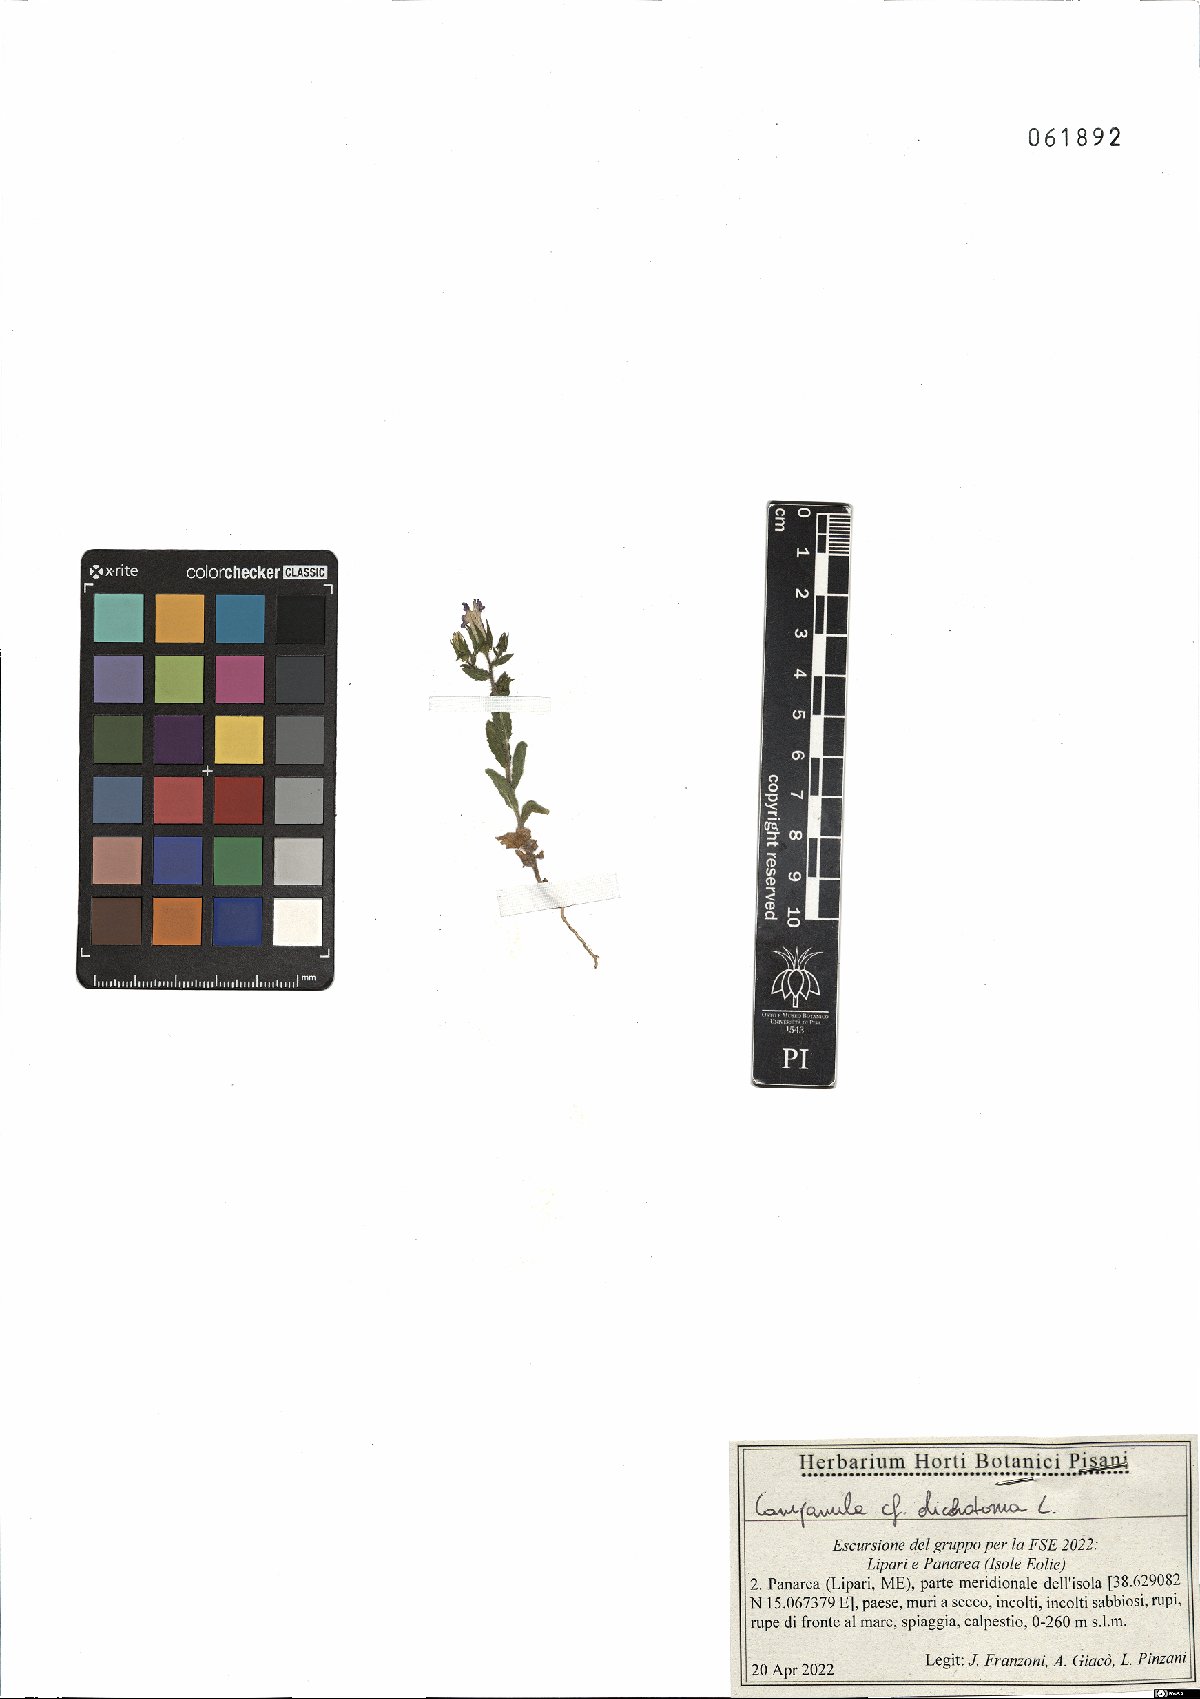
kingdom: Plantae
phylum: Tracheophyta
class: Magnoliopsida
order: Asterales
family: Campanulaceae
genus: Campanula
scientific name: Campanula dichotoma
